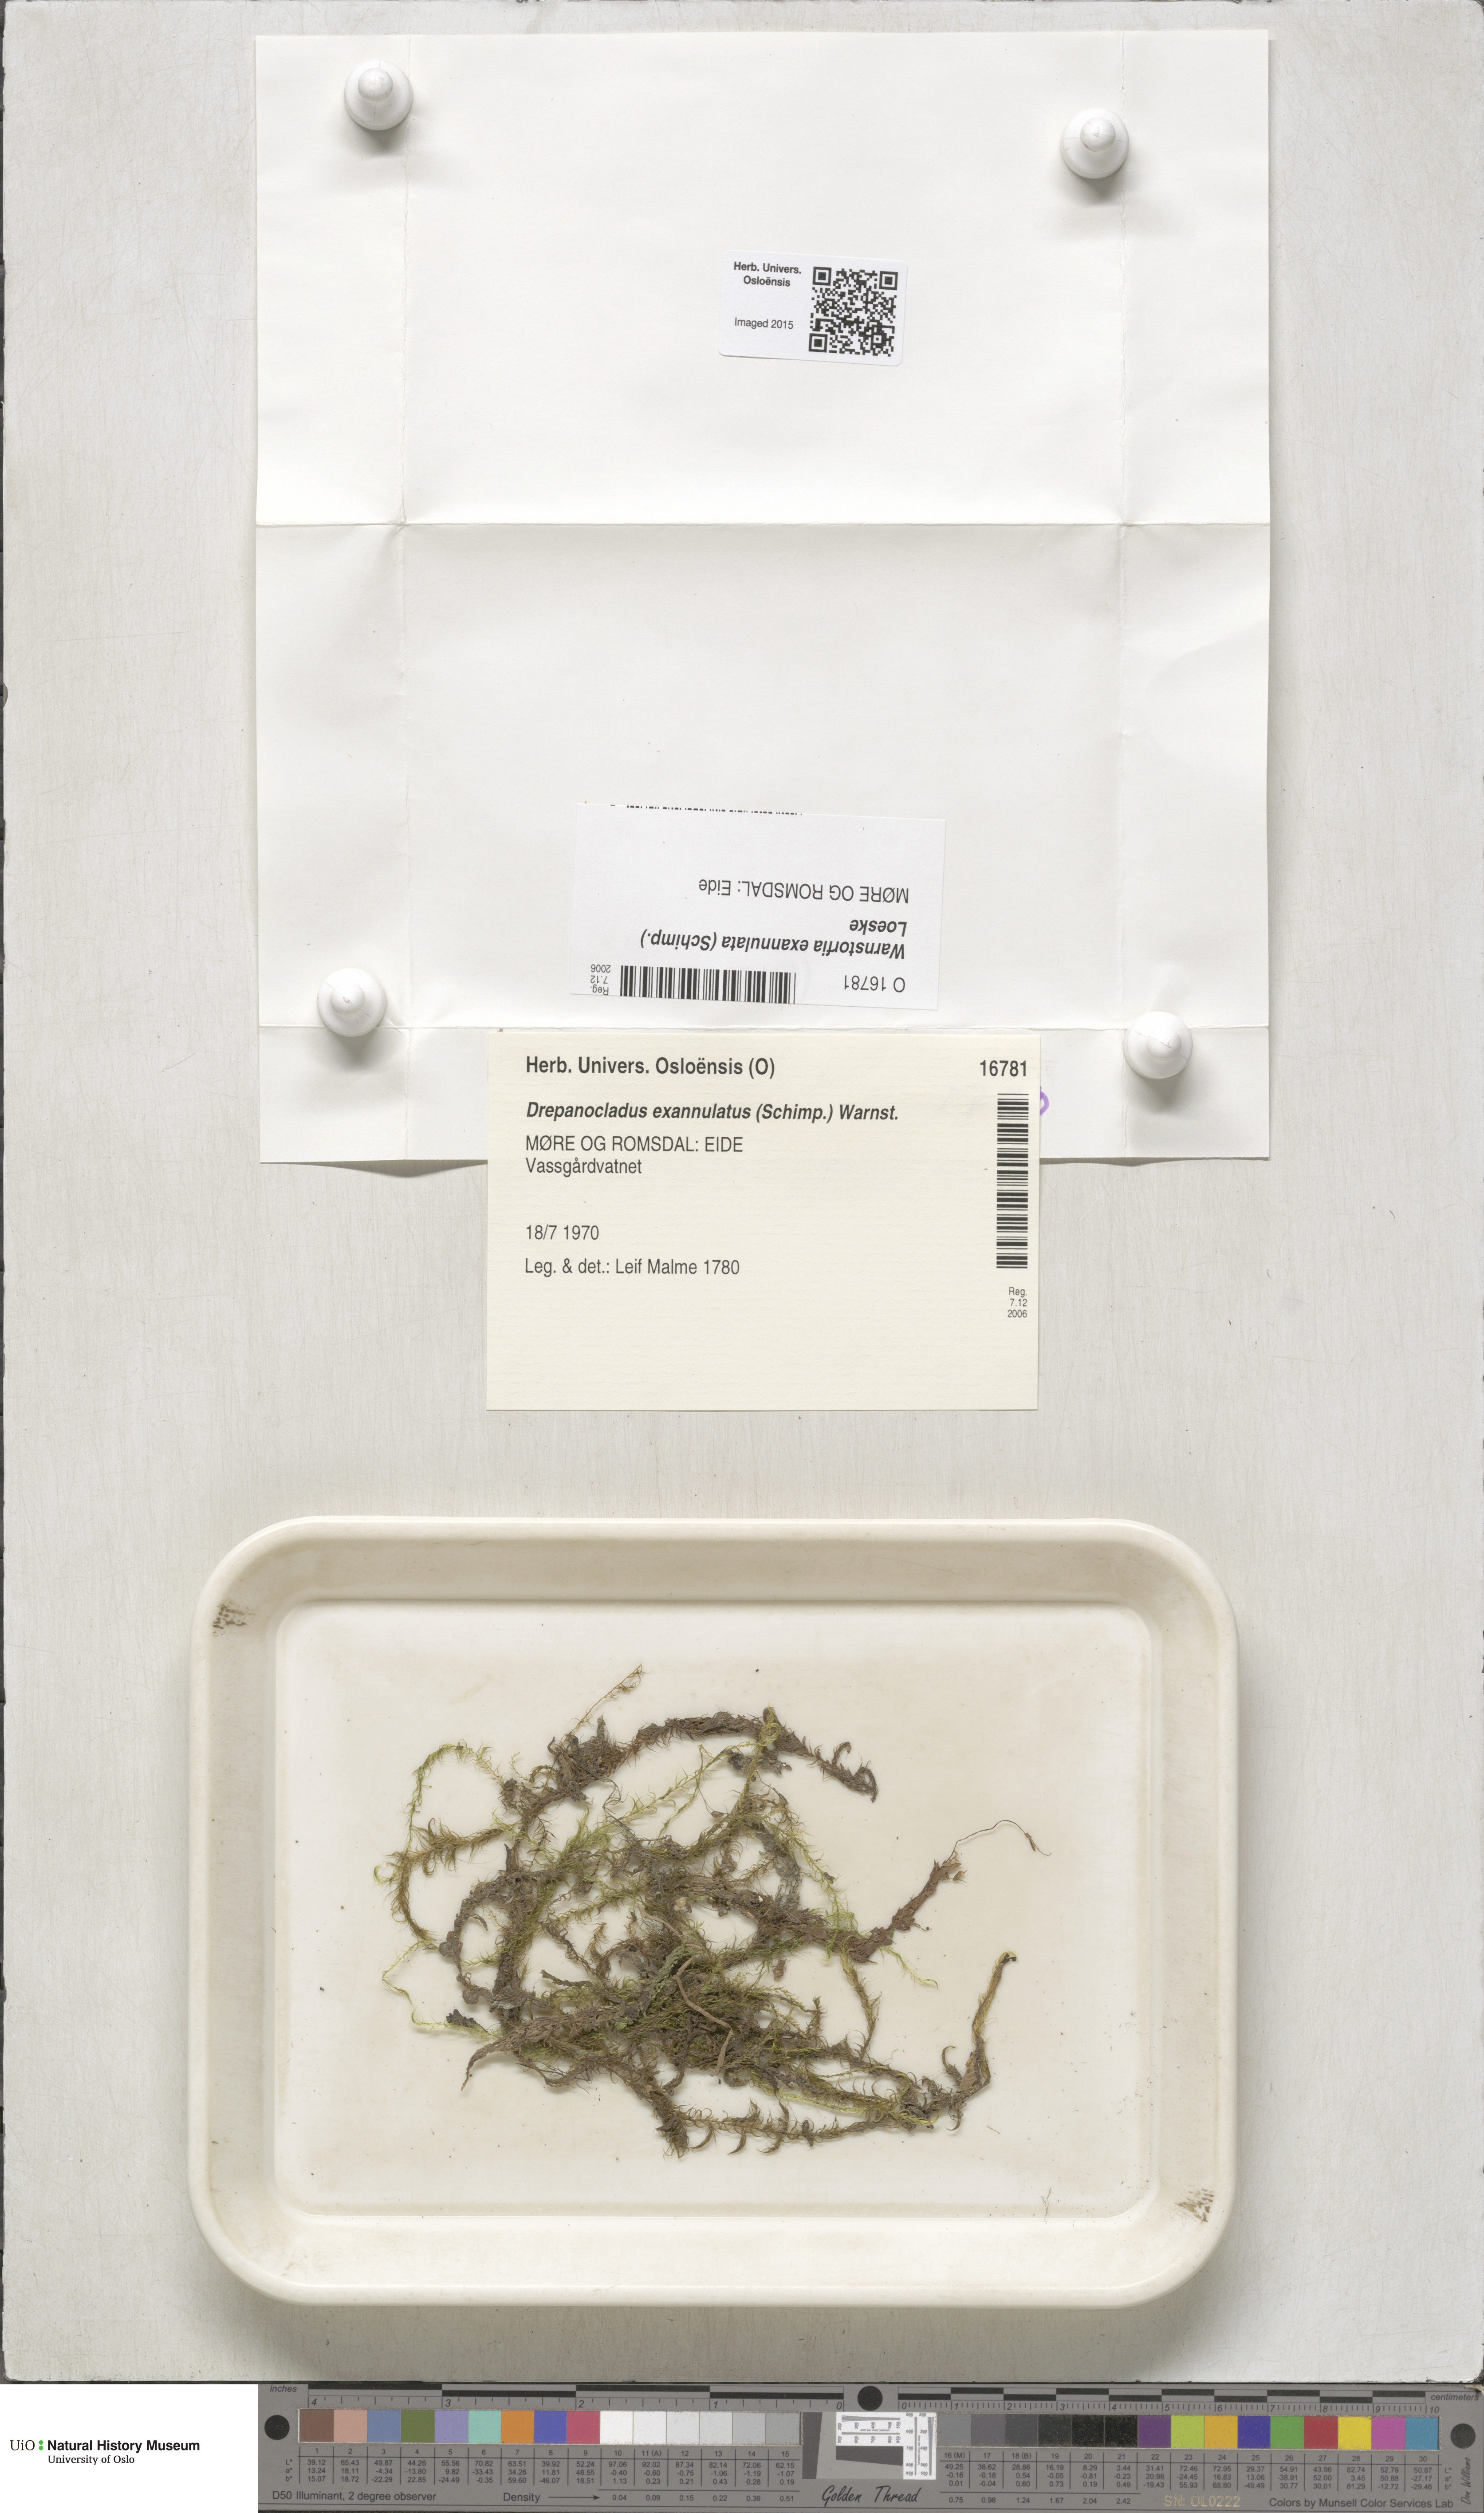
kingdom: Plantae
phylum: Bryophyta
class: Bryopsida
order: Hypnales
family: Calliergonaceae
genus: Sarmentypnum
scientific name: Sarmentypnum exannulatum
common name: Ringless spoon moss
